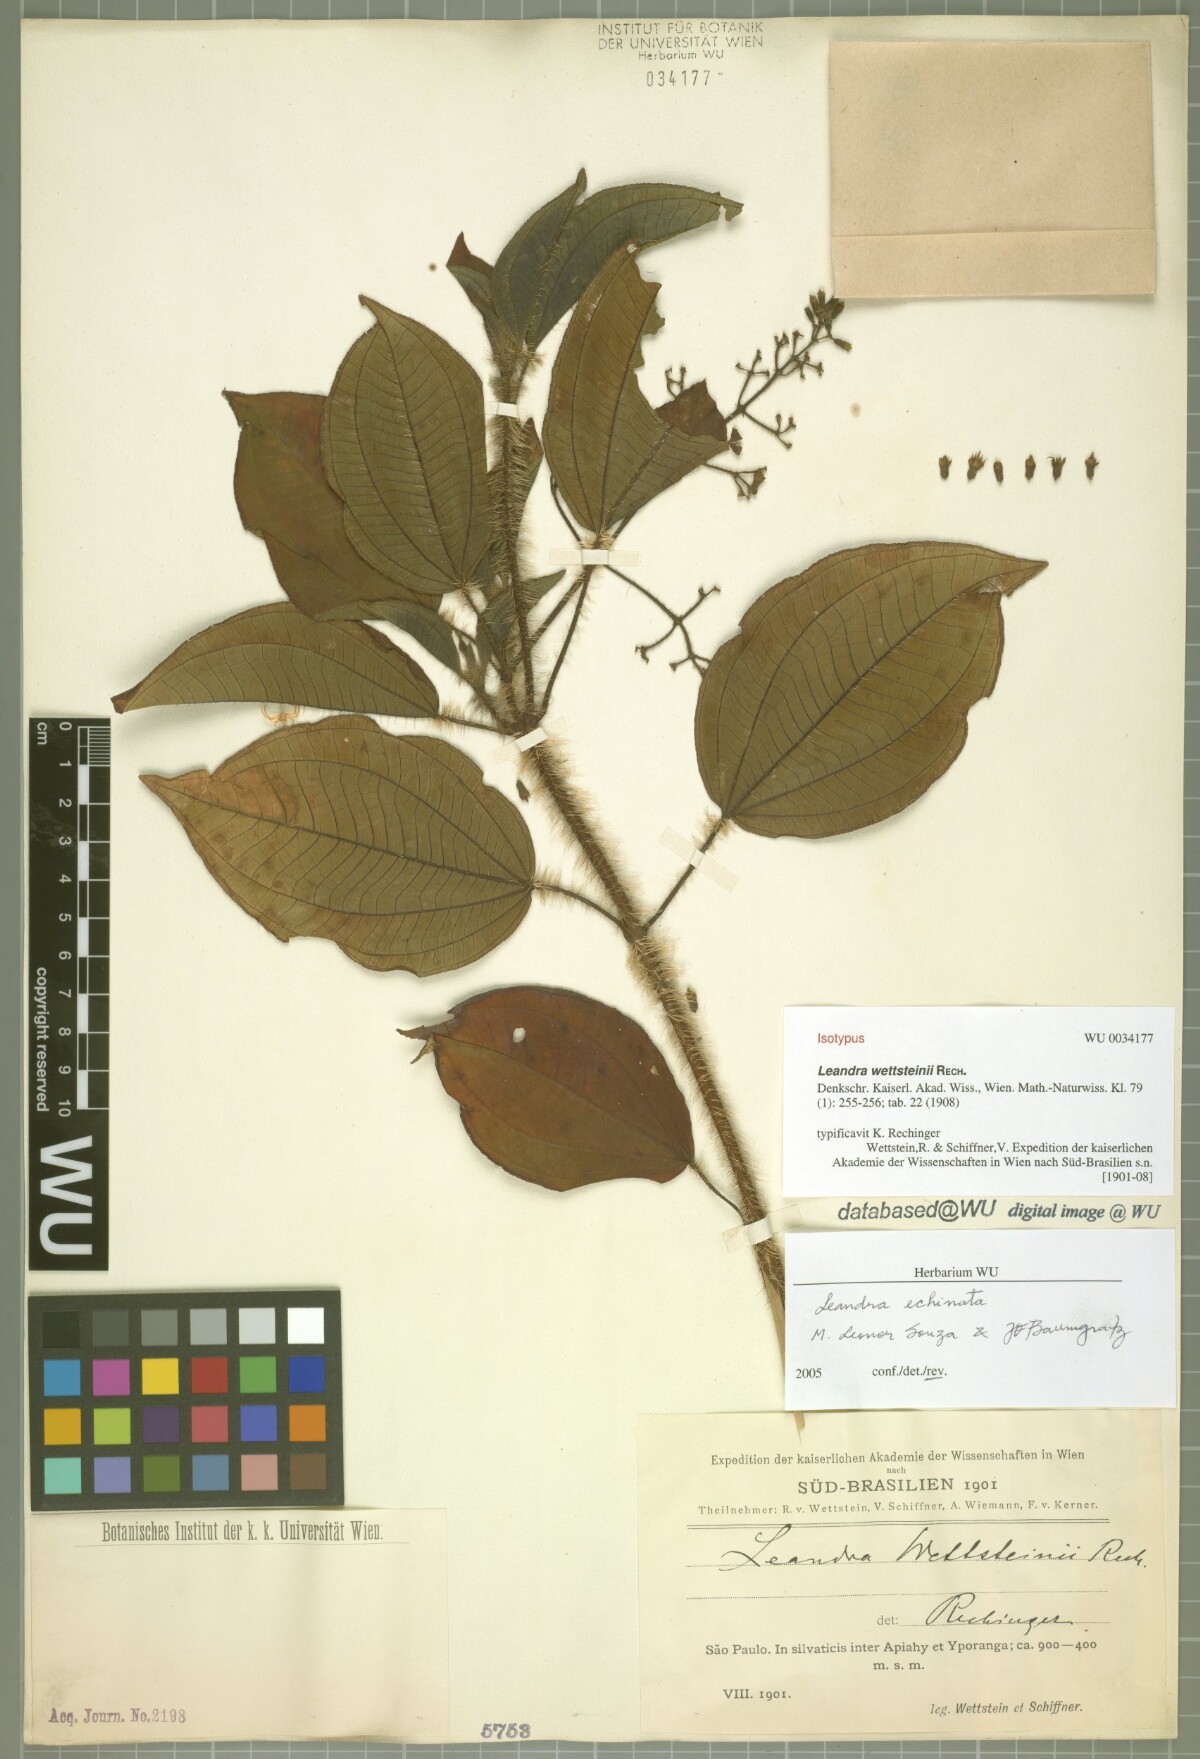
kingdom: Plantae
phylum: Tracheophyta
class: Magnoliopsida
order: Myrtales
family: Melastomataceae
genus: Miconia
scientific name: Miconia leaechinata
